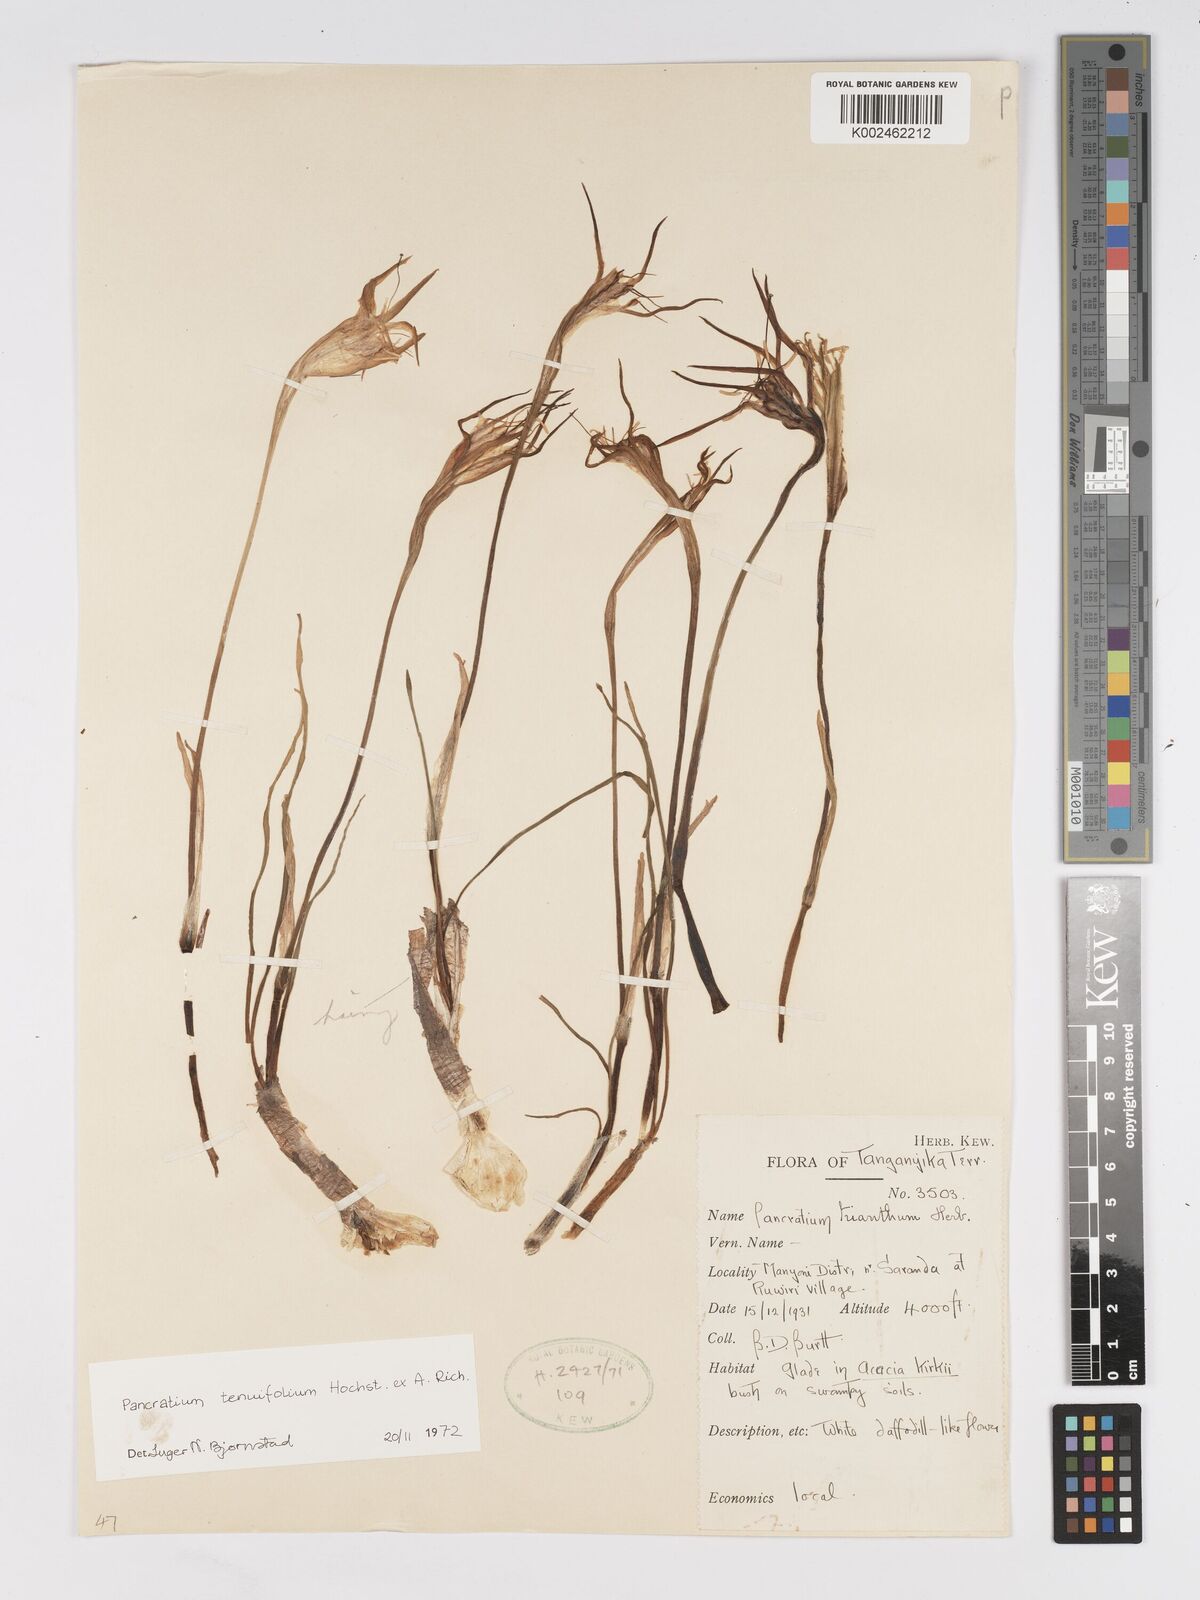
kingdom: Plantae
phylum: Tracheophyta
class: Liliopsida
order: Asparagales
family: Amaryllidaceae
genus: Pancratium
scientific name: Pancratium tenuifolium
